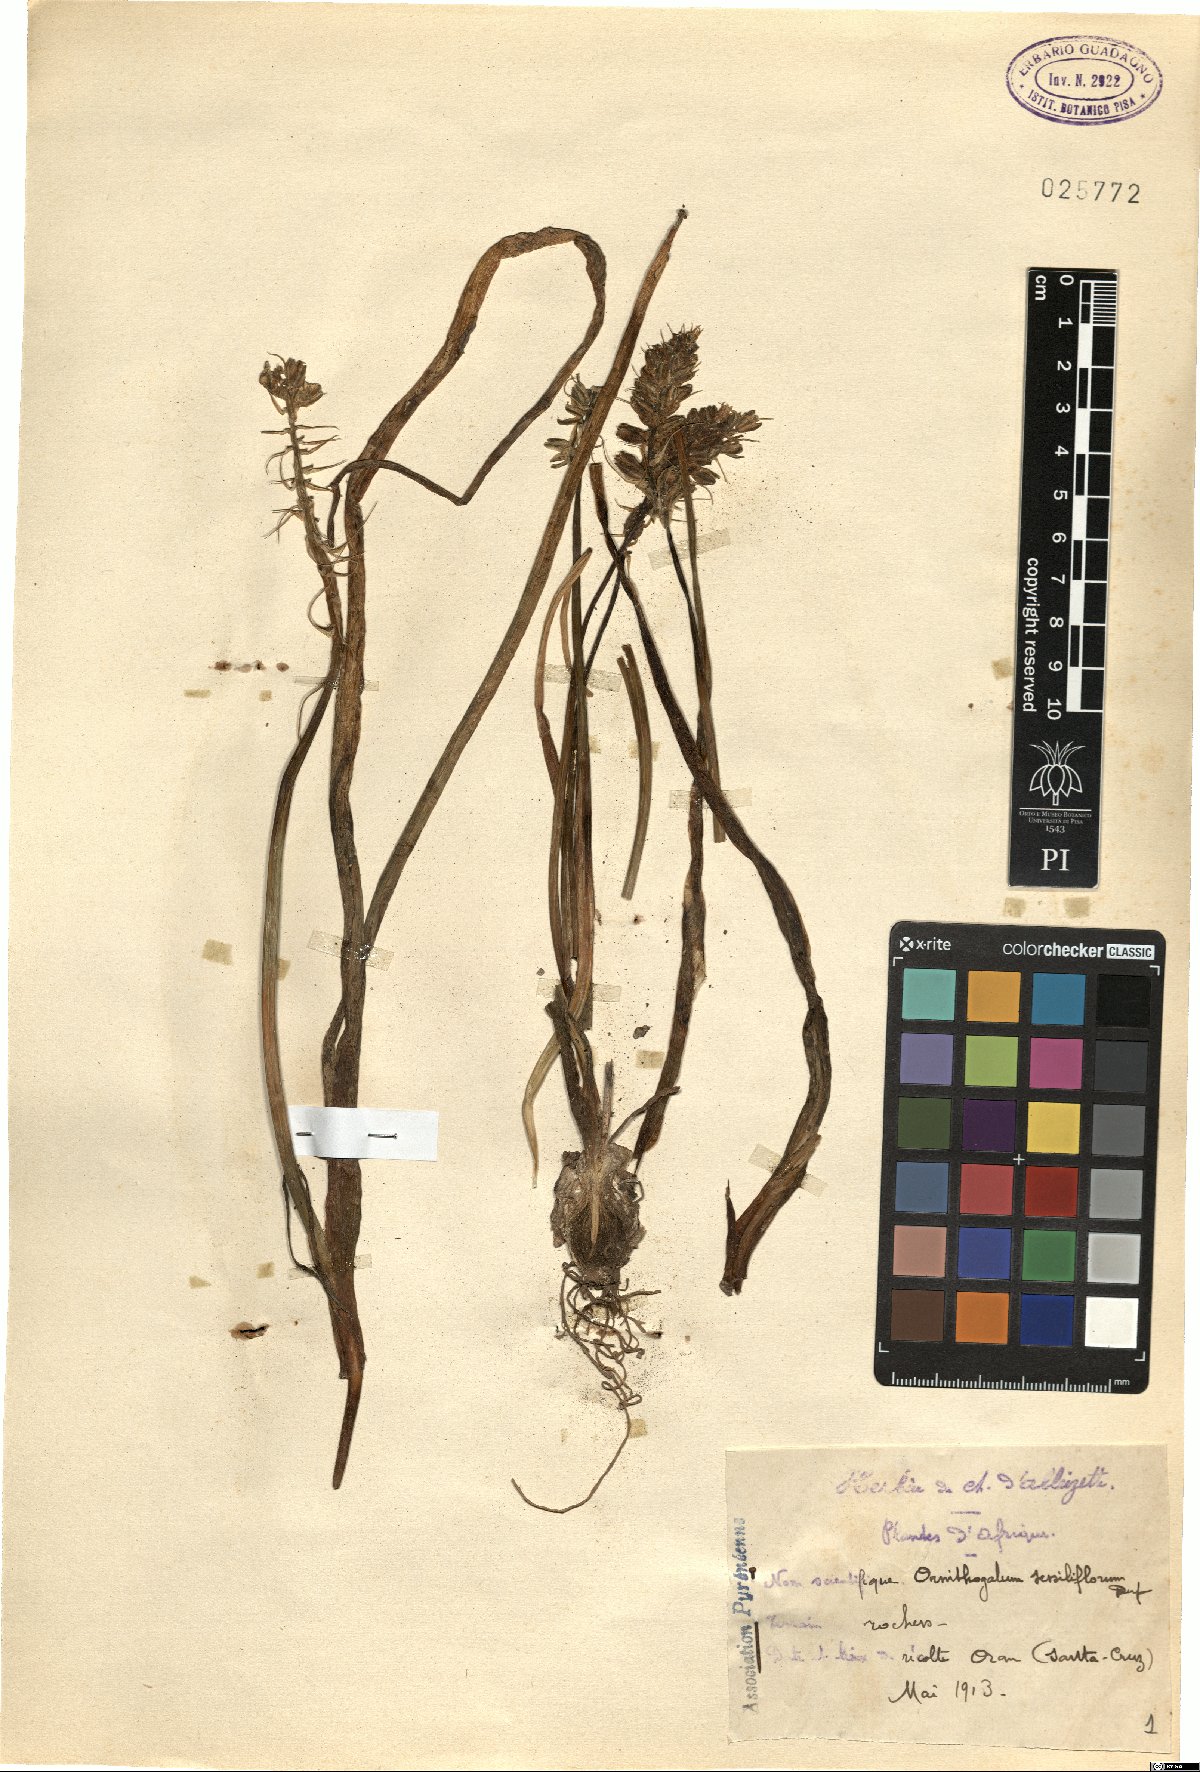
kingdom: Plantae
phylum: Tracheophyta
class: Liliopsida
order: Asparagales
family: Asparagaceae
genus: Ornithogalum
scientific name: Ornithogalum sessiliflorum
